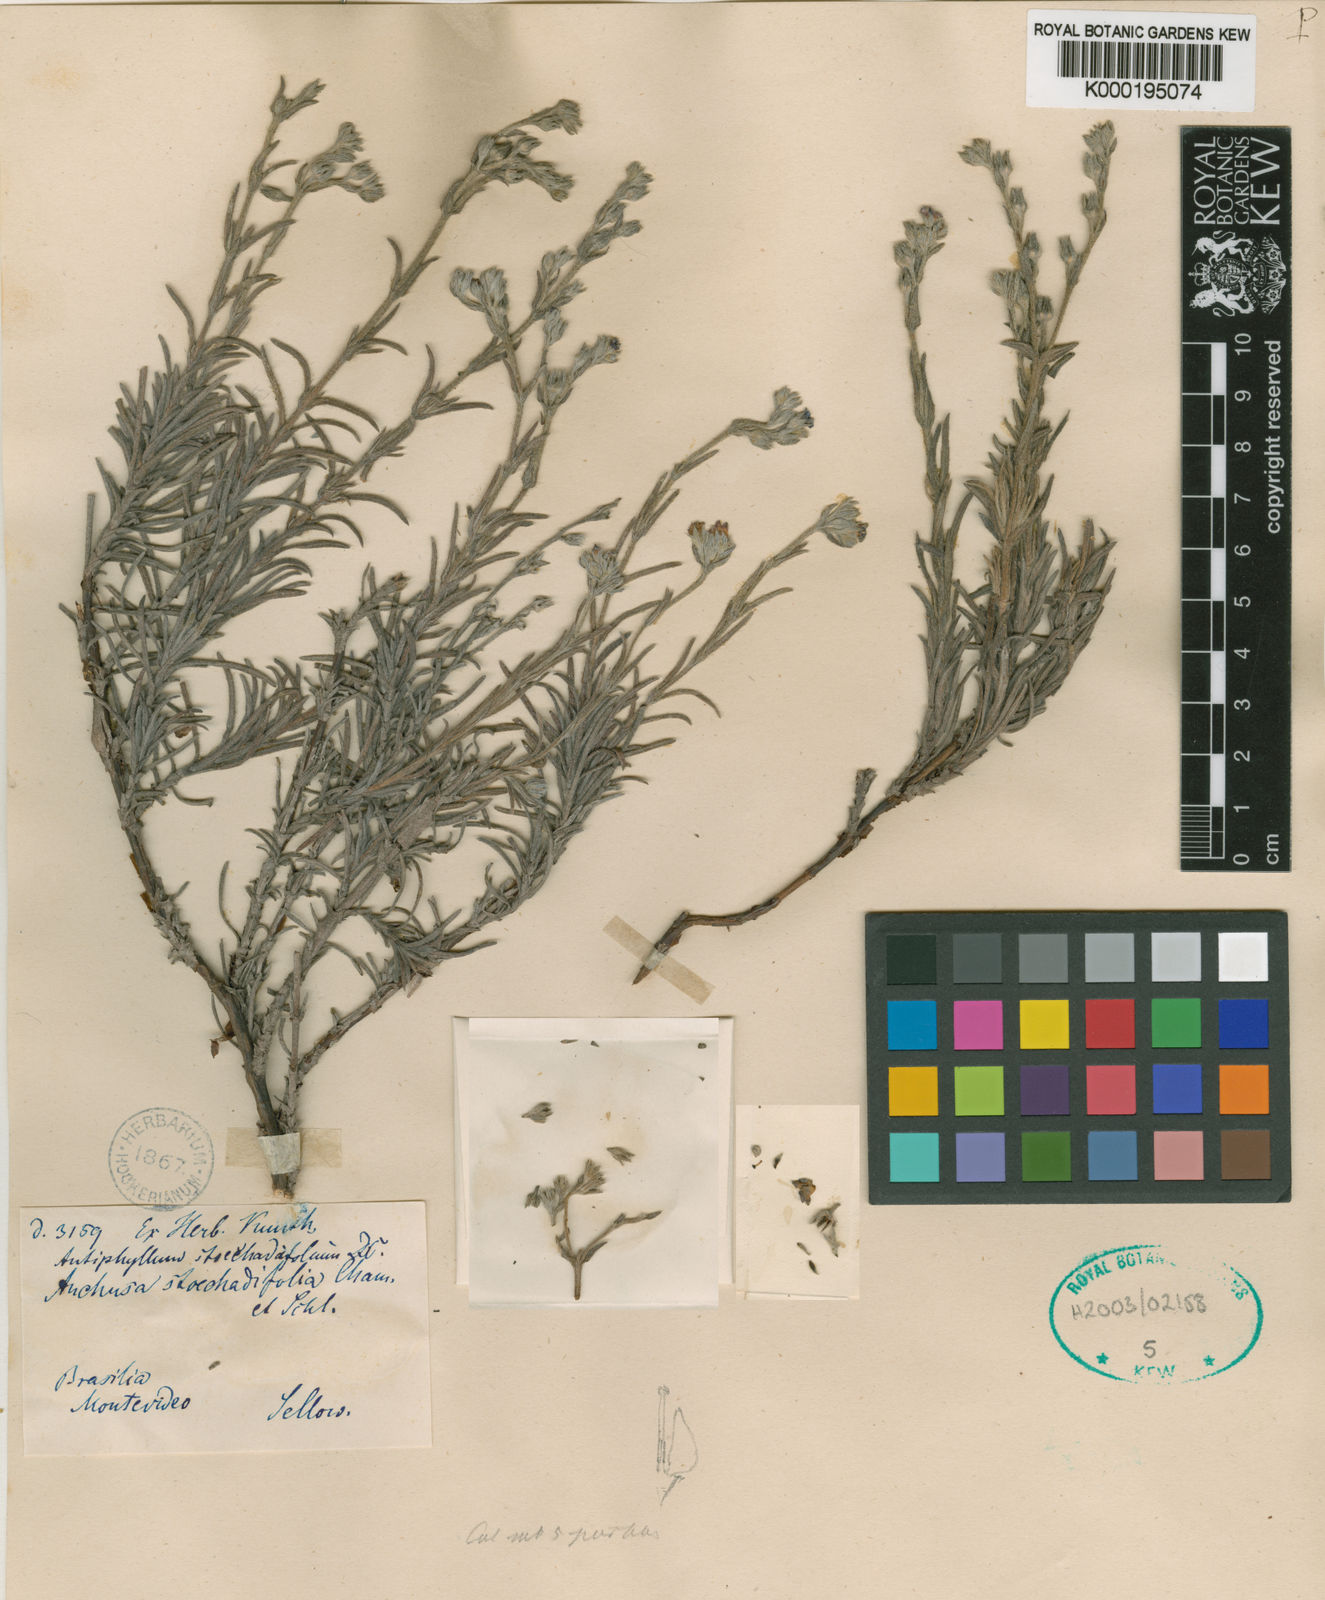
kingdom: Plantae
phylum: Tracheophyta
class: Magnoliopsida
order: Boraginales
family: Boraginaceae
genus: Antiphytum
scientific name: Antiphytum
